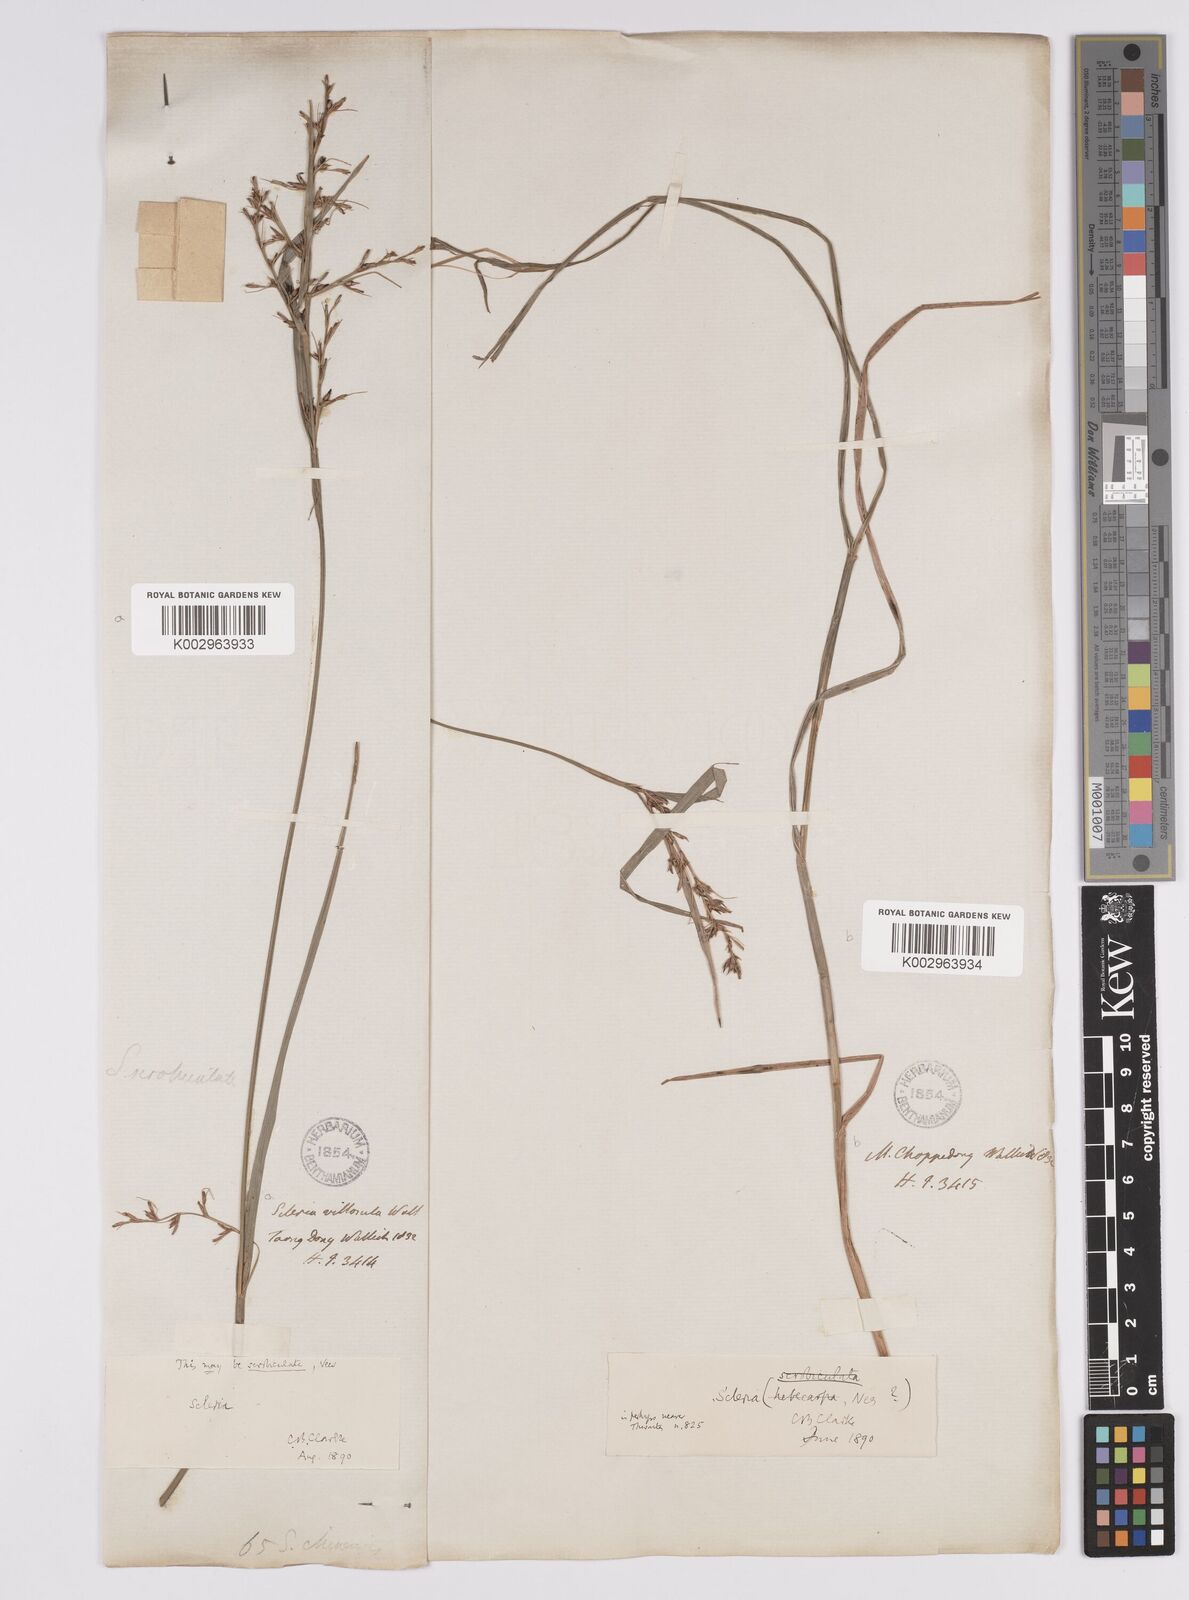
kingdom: Plantae
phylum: Tracheophyta
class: Liliopsida
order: Poales
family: Cyperaceae
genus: Scleria
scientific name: Scleria
